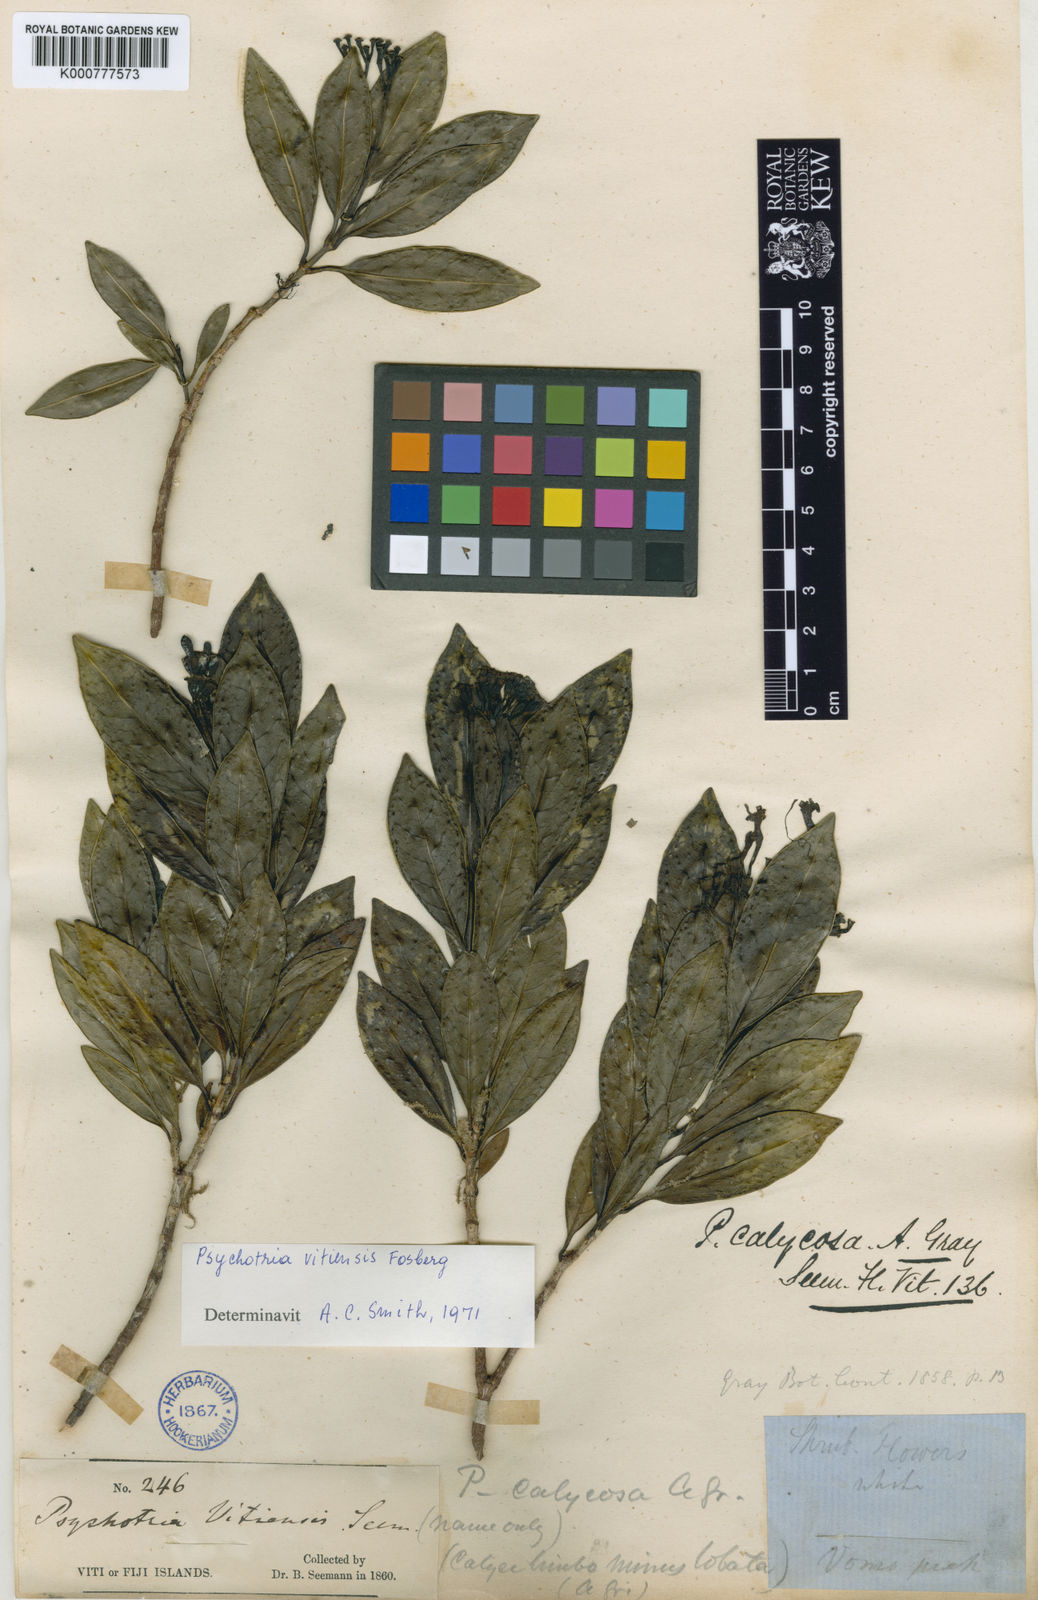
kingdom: Plantae
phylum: Tracheophyta
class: Magnoliopsida
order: Gentianales
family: Rubiaceae
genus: Psychotria
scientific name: Psychotria vitiensis
